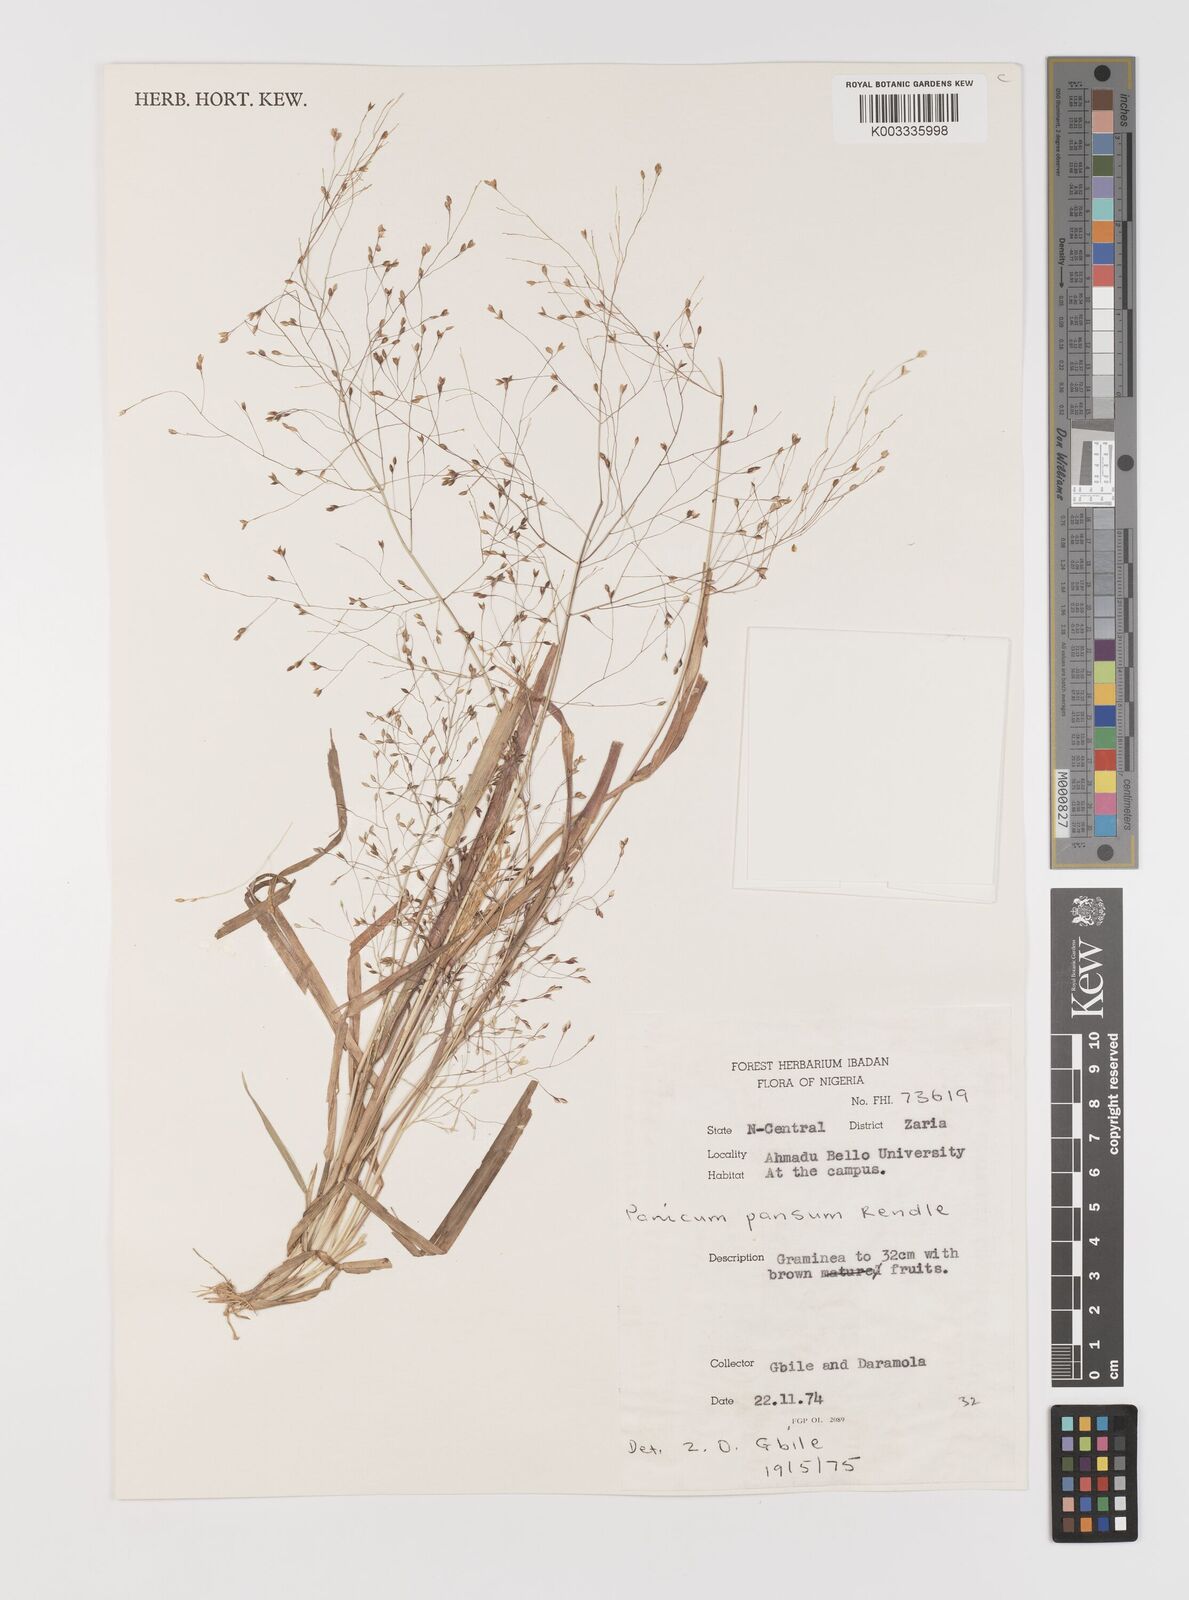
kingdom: Plantae
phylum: Tracheophyta
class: Liliopsida
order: Poales
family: Poaceae
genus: Panicum
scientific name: Panicum pansum
